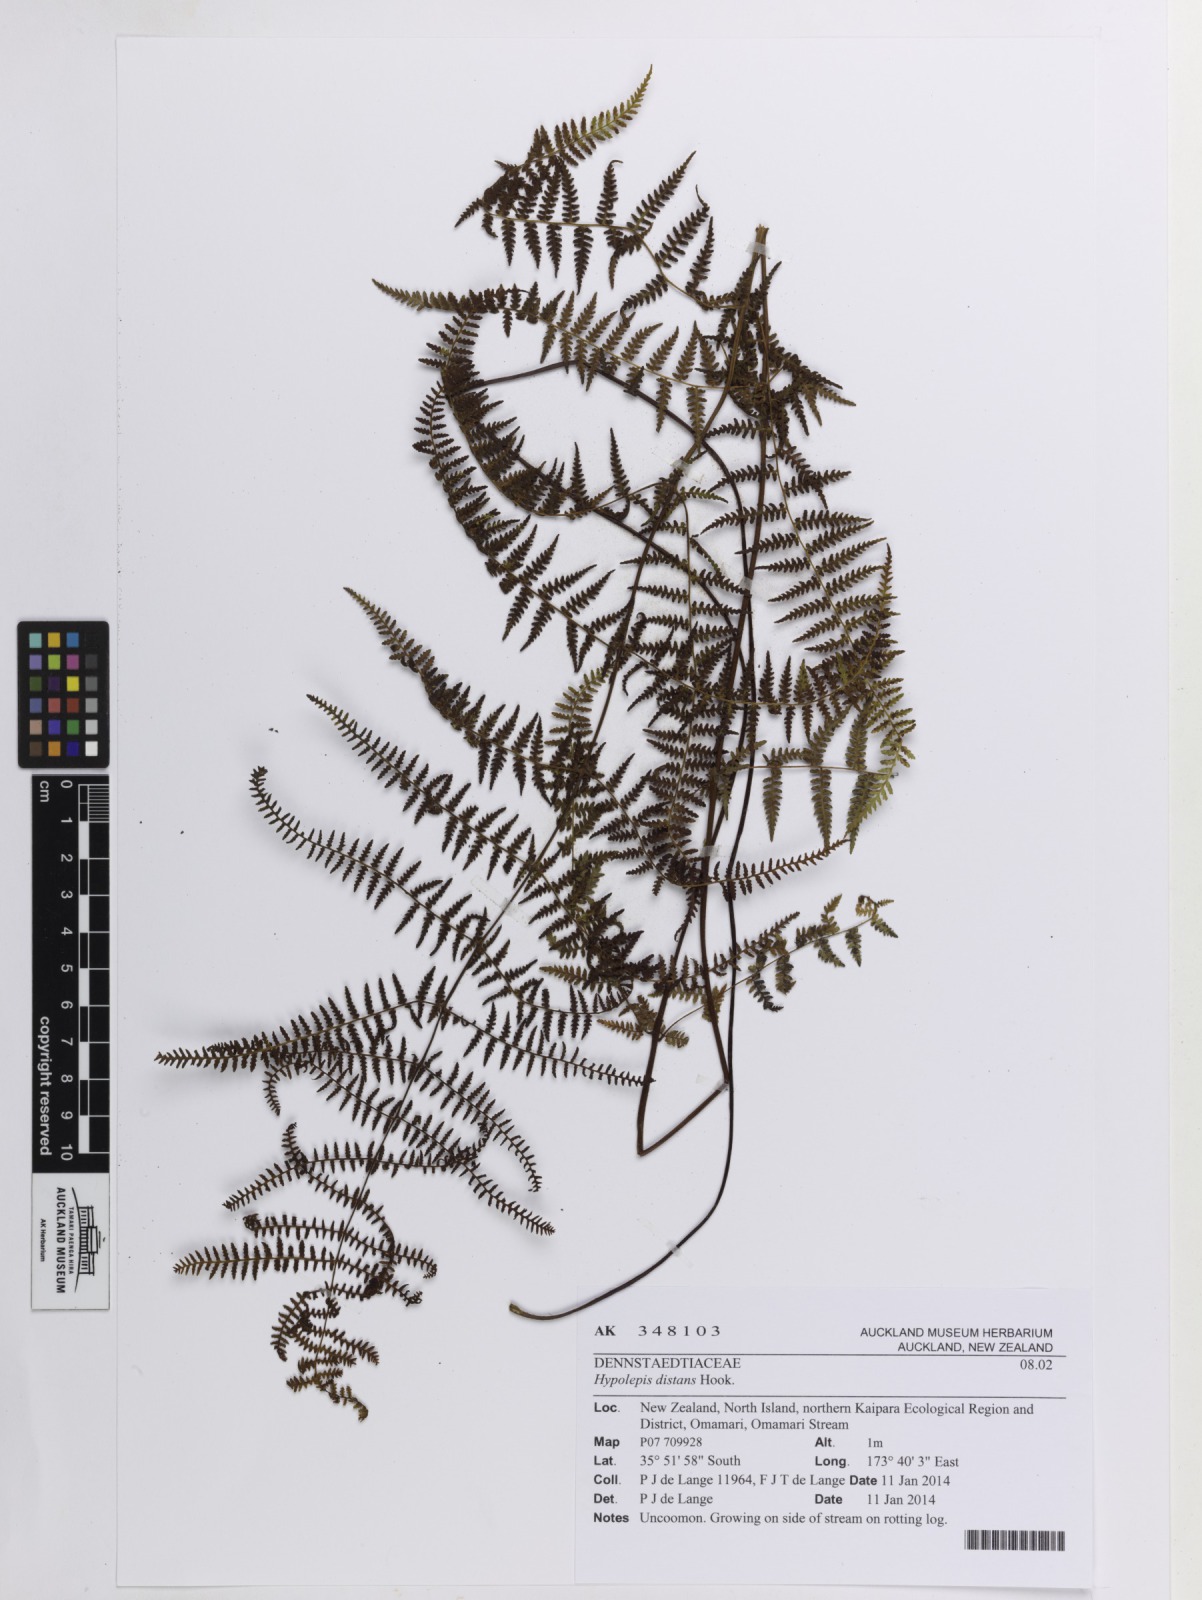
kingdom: Plantae
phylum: Tracheophyta
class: Polypodiopsida
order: Polypodiales
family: Dennstaedtiaceae
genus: Hiya
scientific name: Hiya distans
